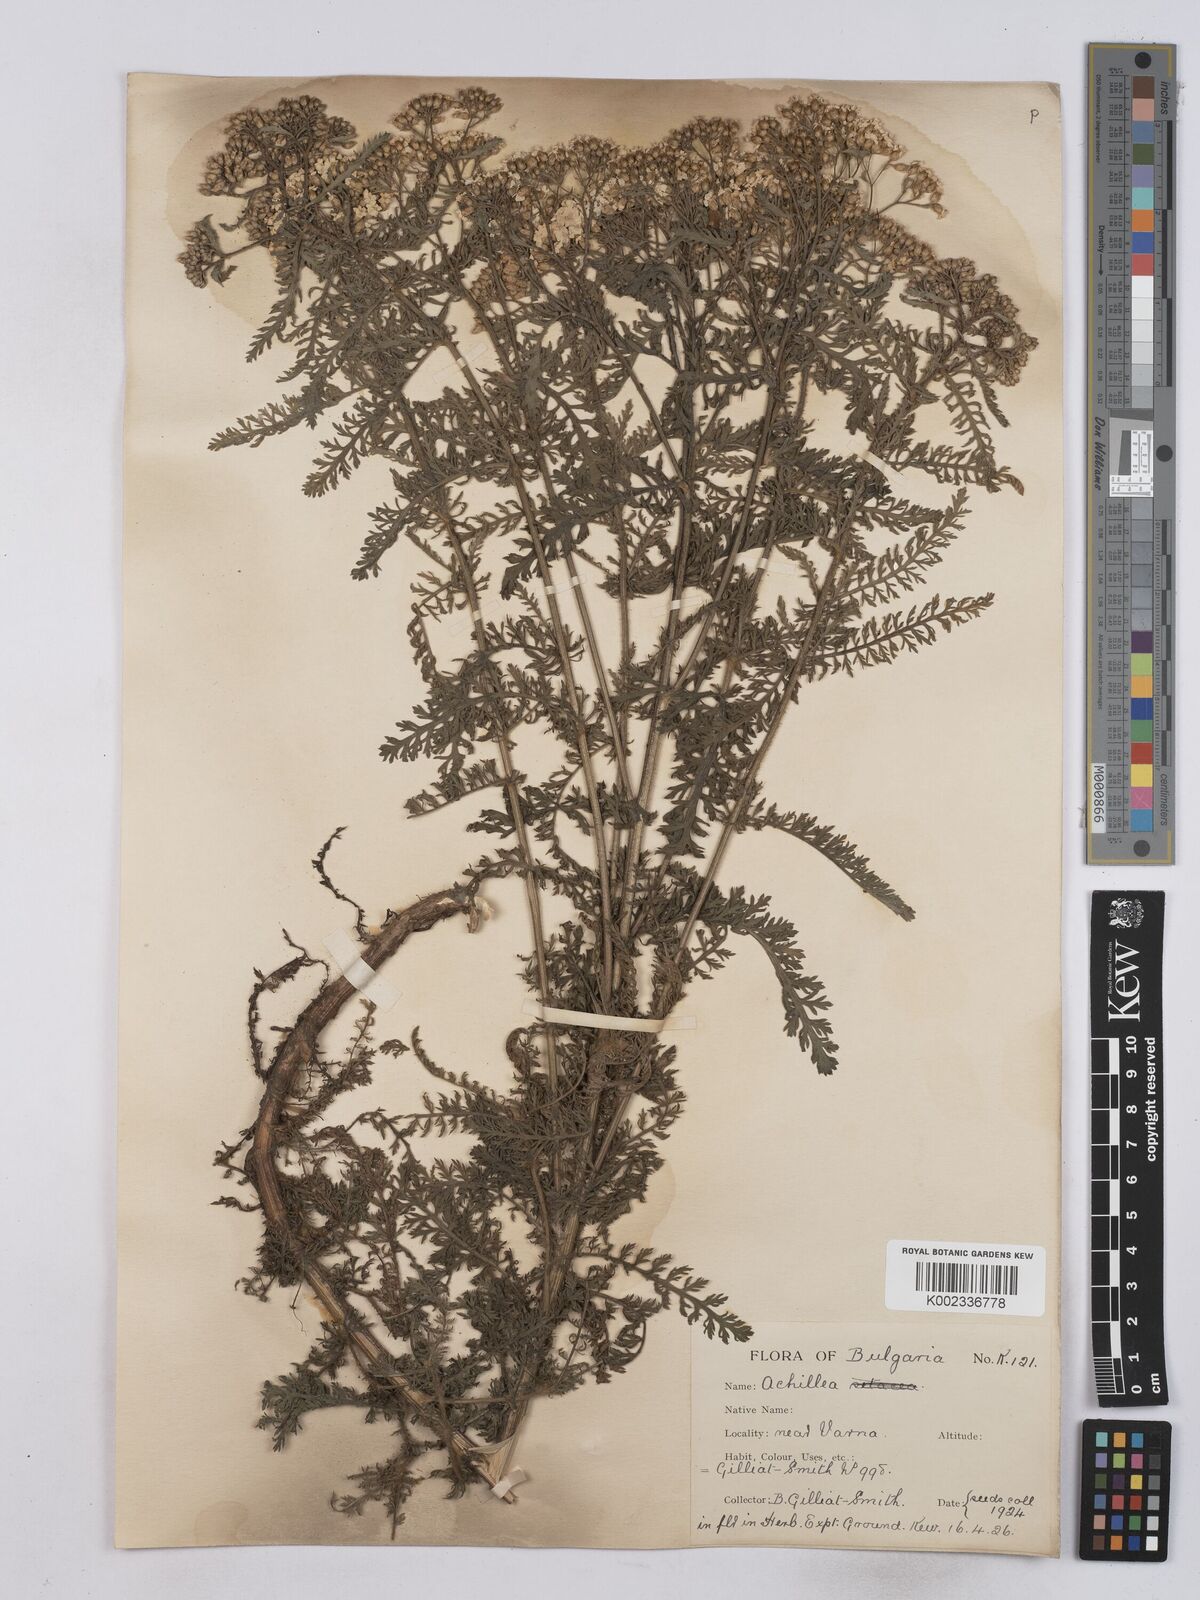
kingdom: Plantae
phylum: Tracheophyta
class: Magnoliopsida
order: Asterales
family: Asteraceae
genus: Achillea
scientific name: Achillea crithmifolia
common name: Yarrow
